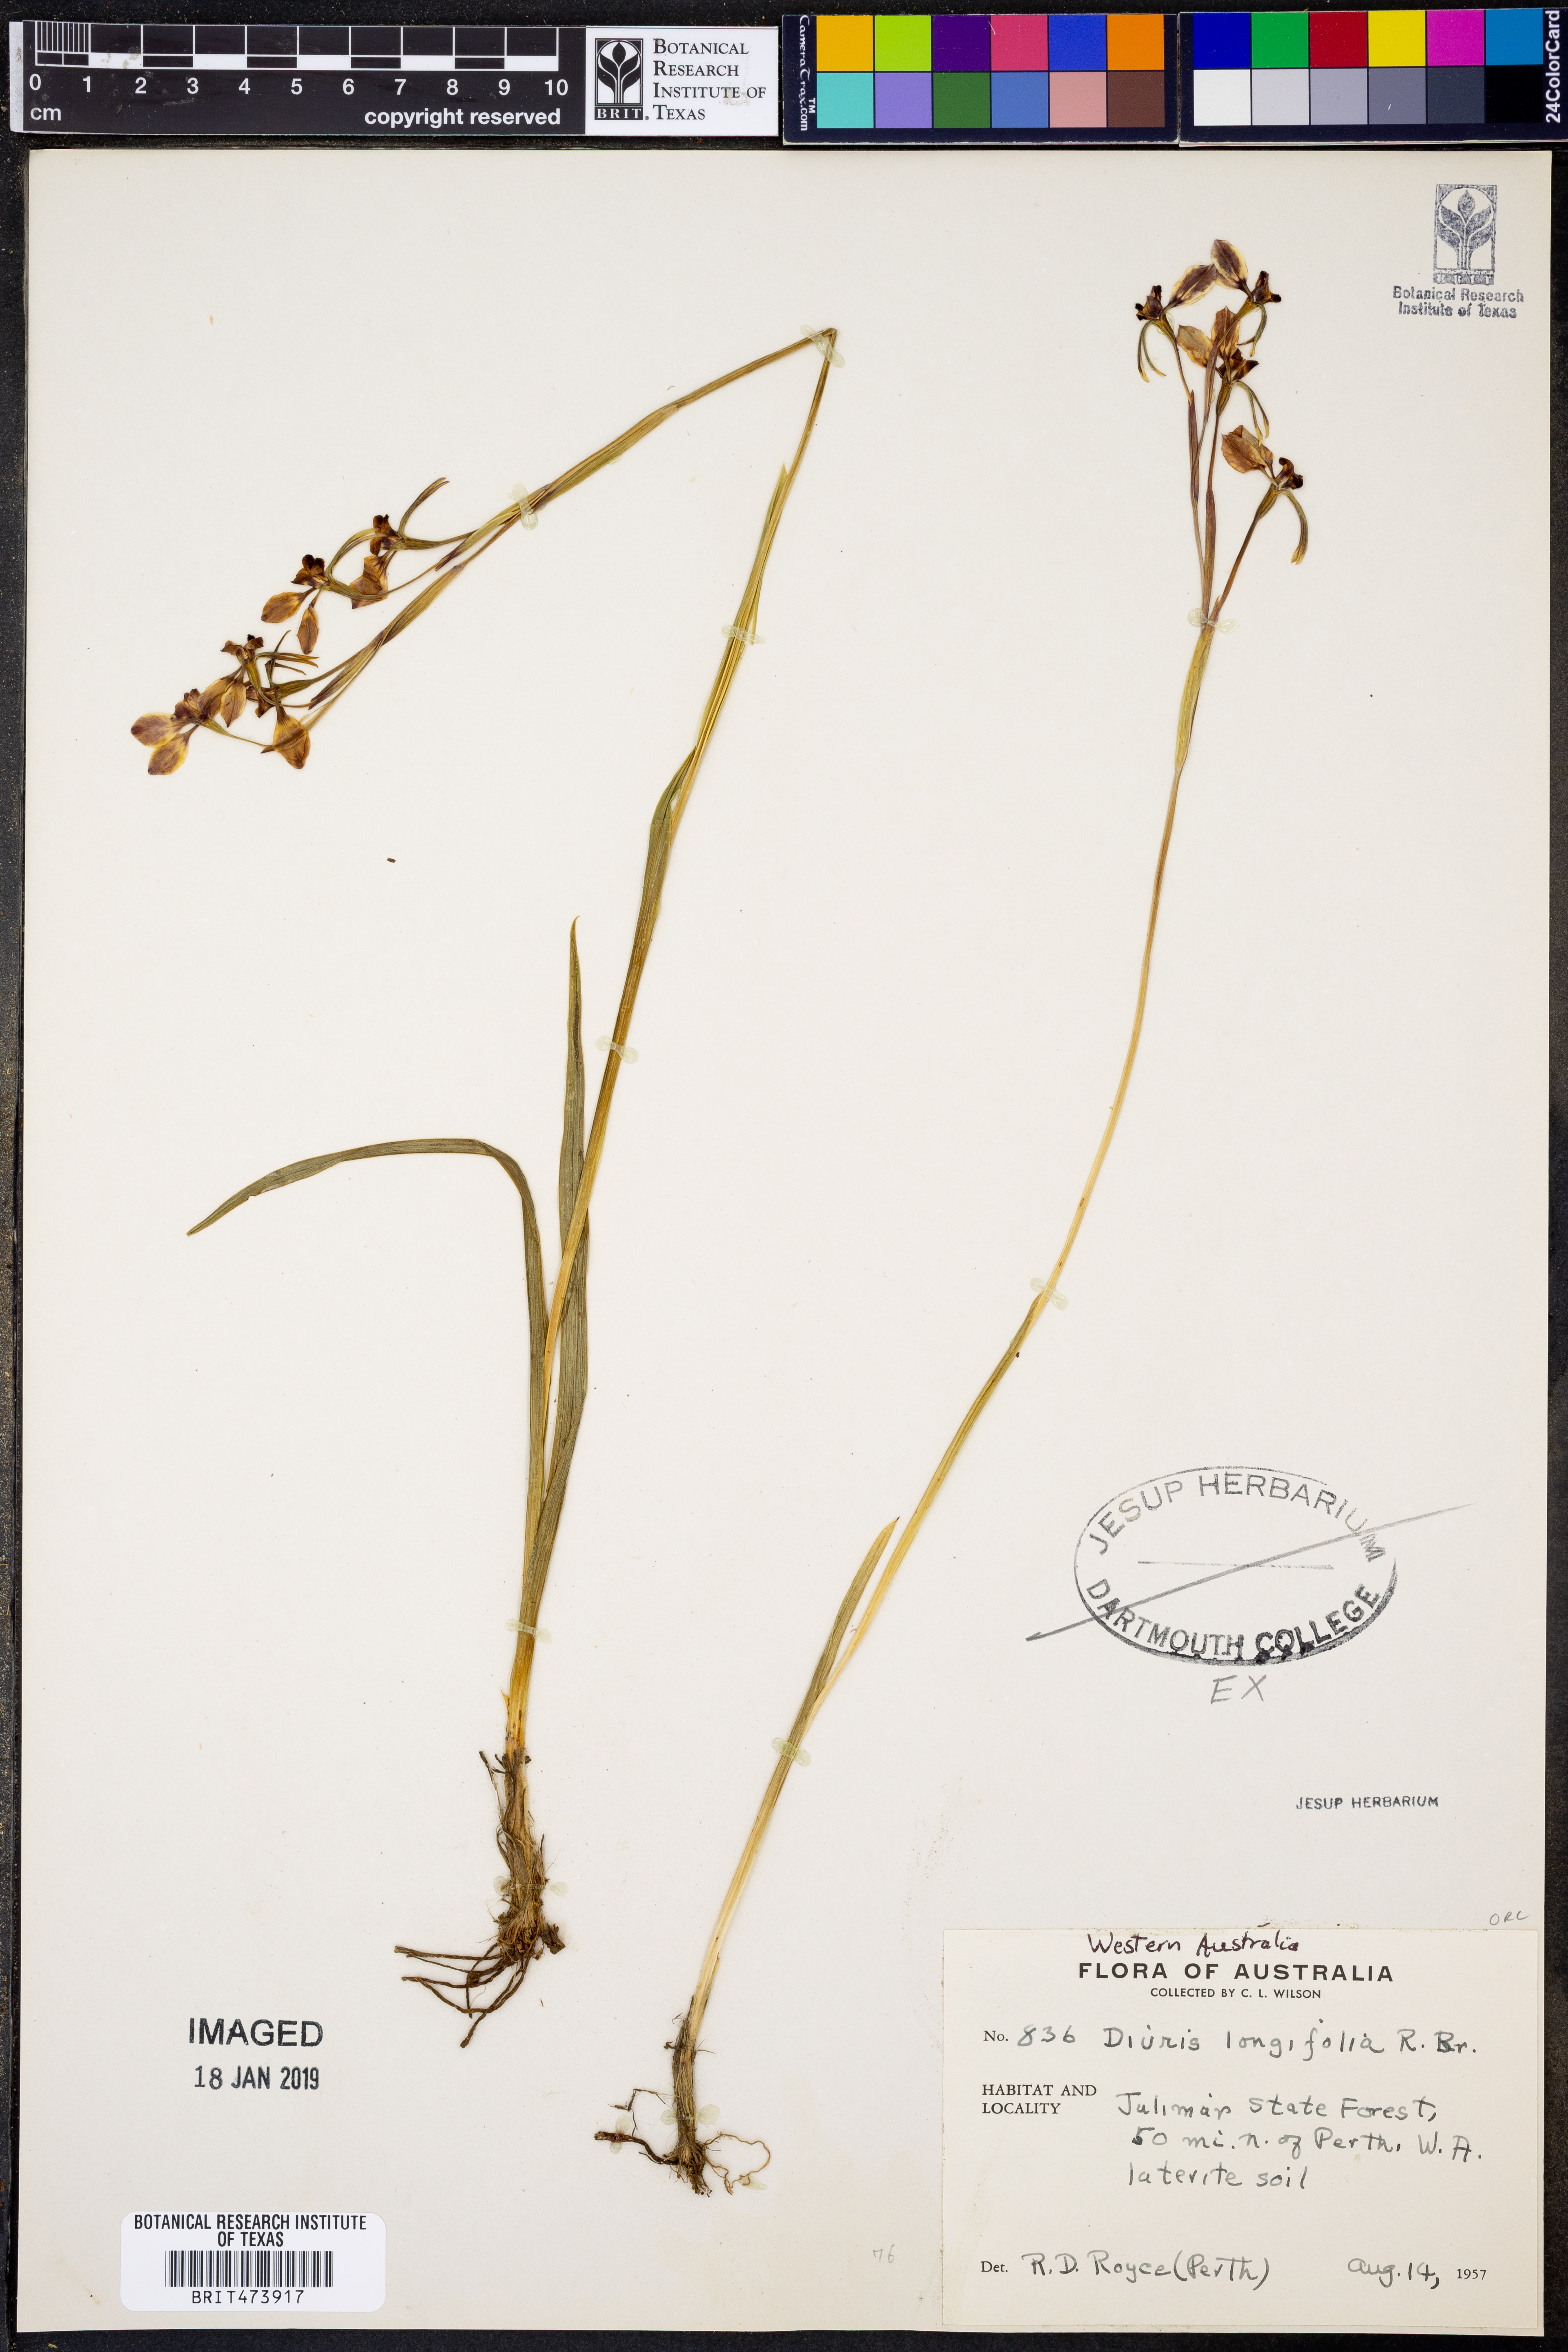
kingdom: Plantae
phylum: Tracheophyta
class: Liliopsida
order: Asparagales
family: Orchidaceae
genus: Diuris
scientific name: Diuris longifolia
